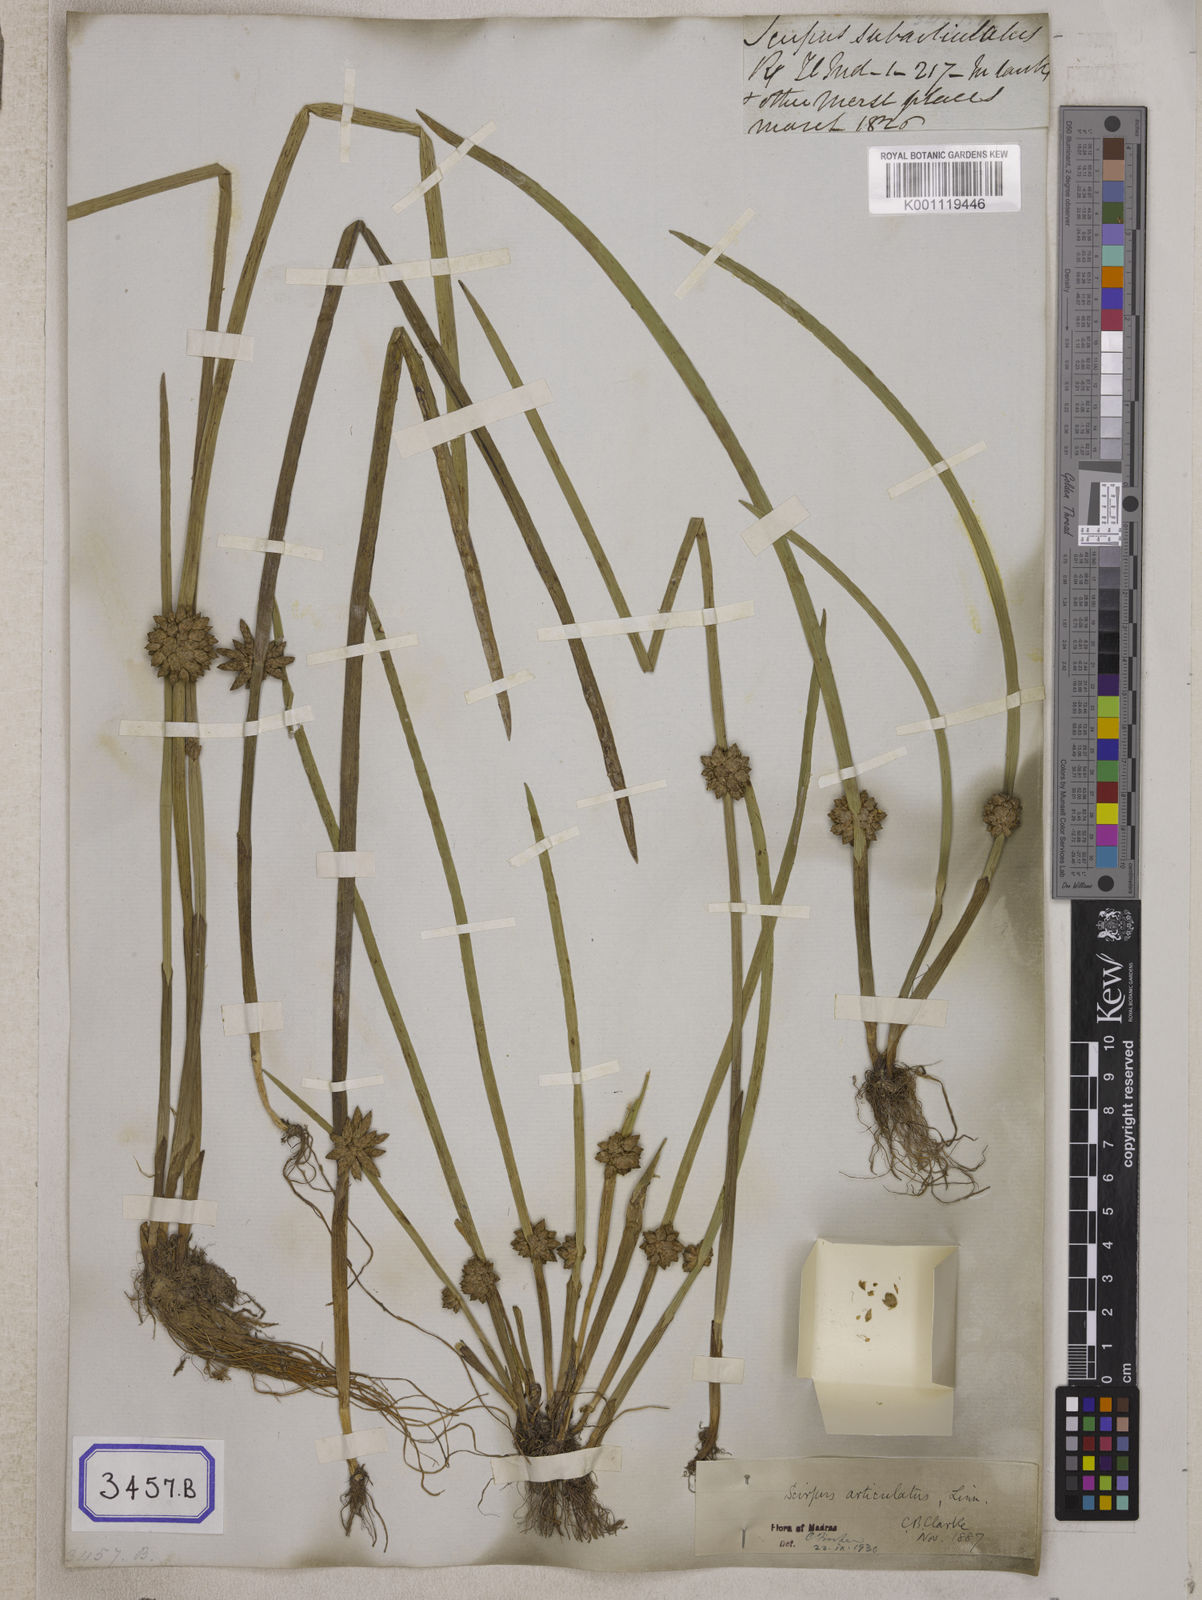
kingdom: Plantae
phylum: Tracheophyta
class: Liliopsida
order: Poales
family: Cyperaceae
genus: Scirpus
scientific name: Scirpus
